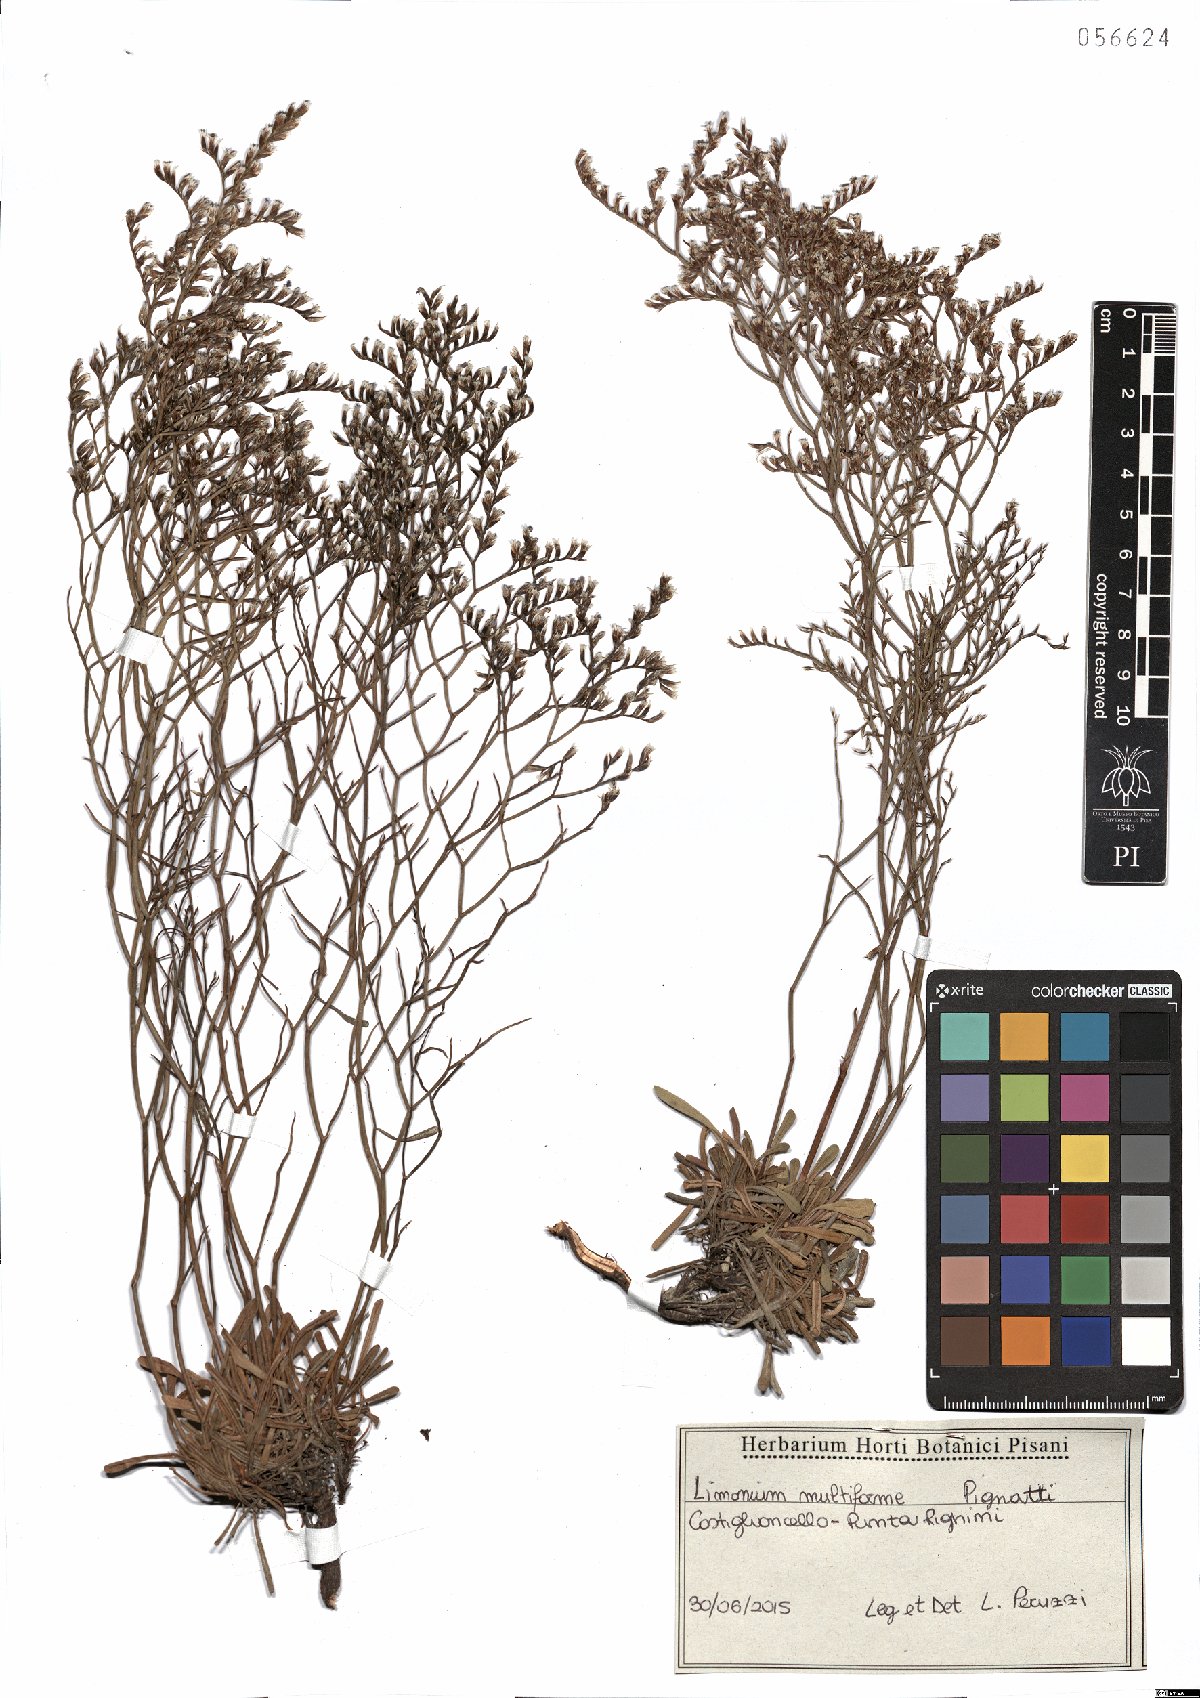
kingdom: Plantae
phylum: Tracheophyta
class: Magnoliopsida
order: Caryophyllales
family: Plumbaginaceae
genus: Limonium
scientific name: Limonium multiforme
